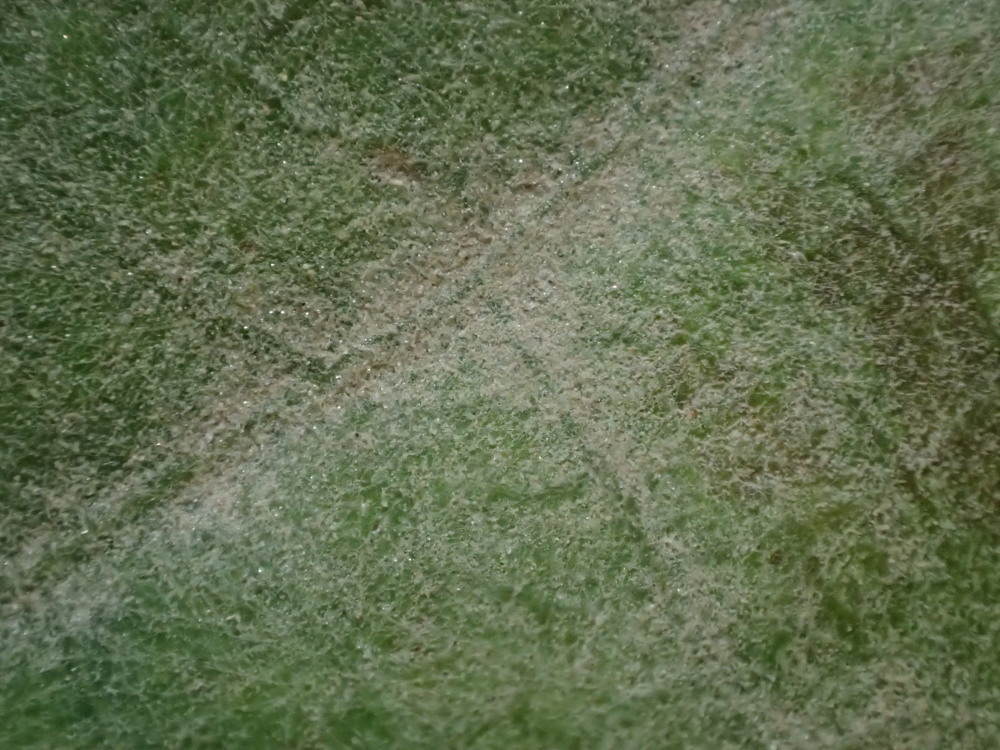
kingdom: Fungi
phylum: Ascomycota
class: Leotiomycetes
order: Helotiales
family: Erysiphaceae
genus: Erysiphe
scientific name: Erysiphe alphitoides
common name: ege-meldug
